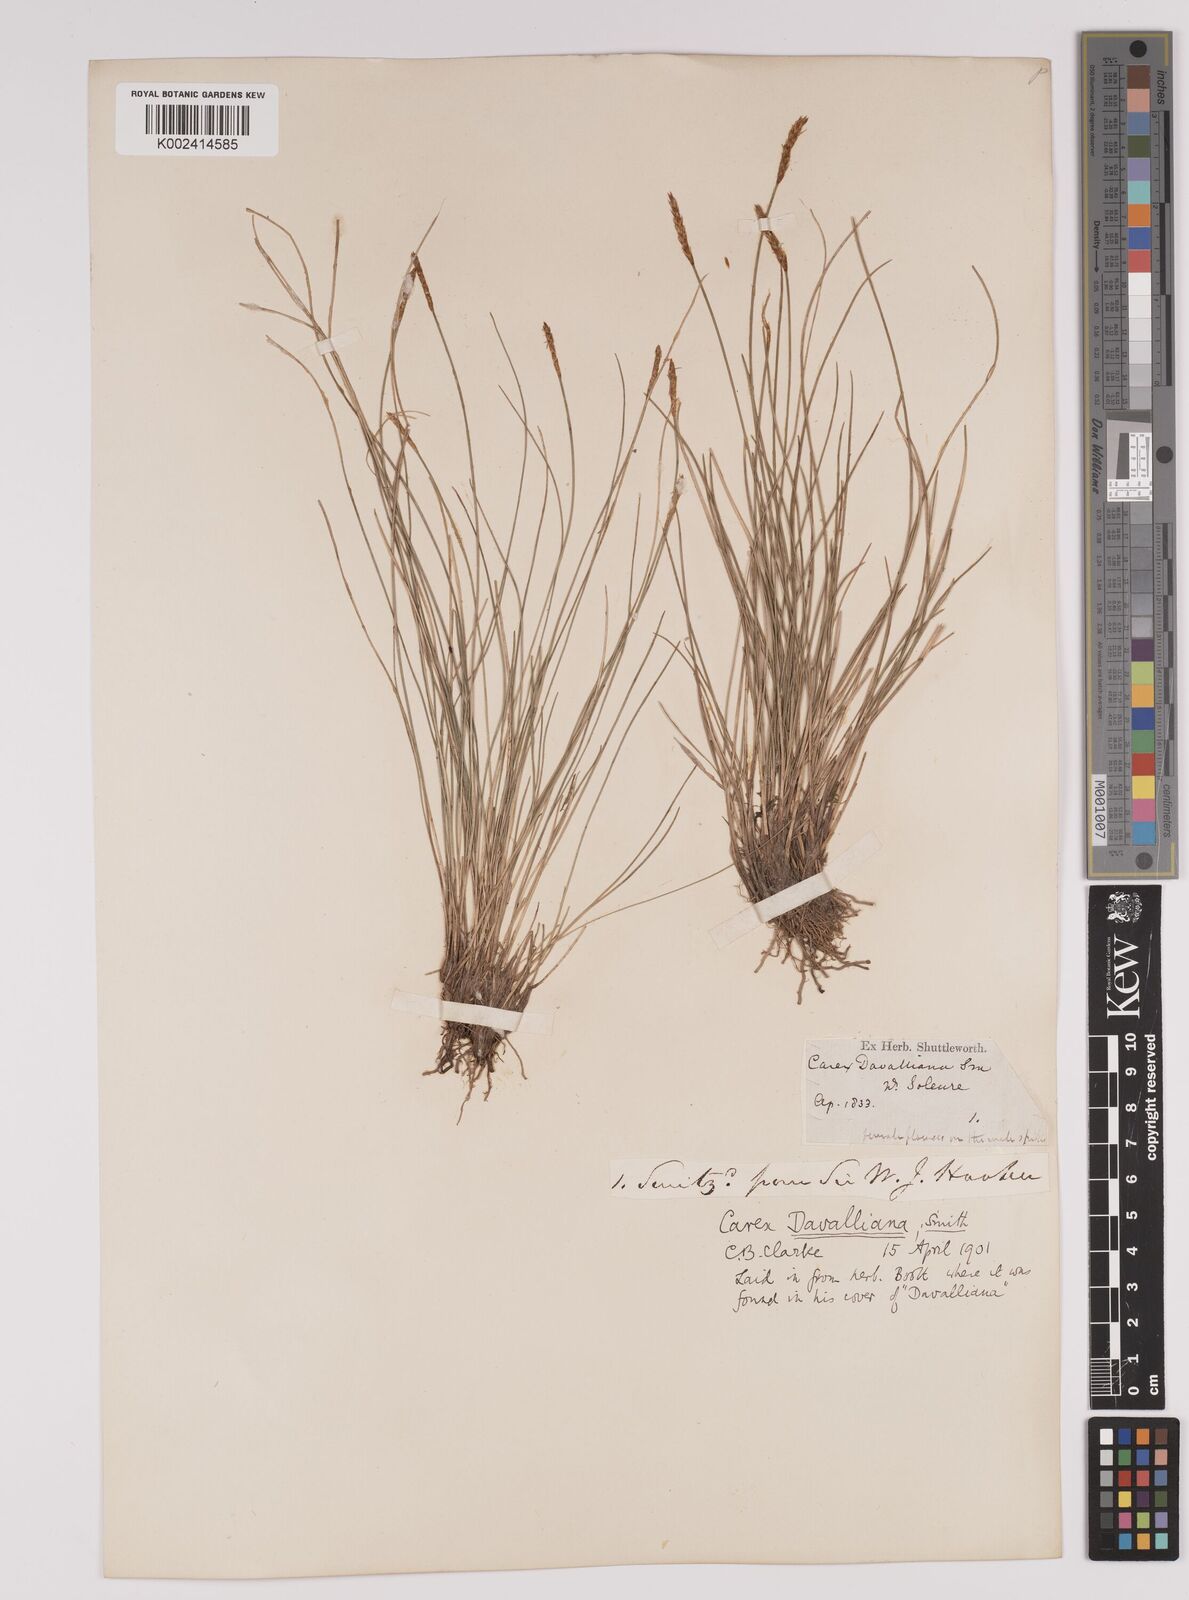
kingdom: Plantae
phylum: Tracheophyta
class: Liliopsida
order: Poales
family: Cyperaceae
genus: Carex
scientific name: Carex davalliana
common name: Davall's sedge
